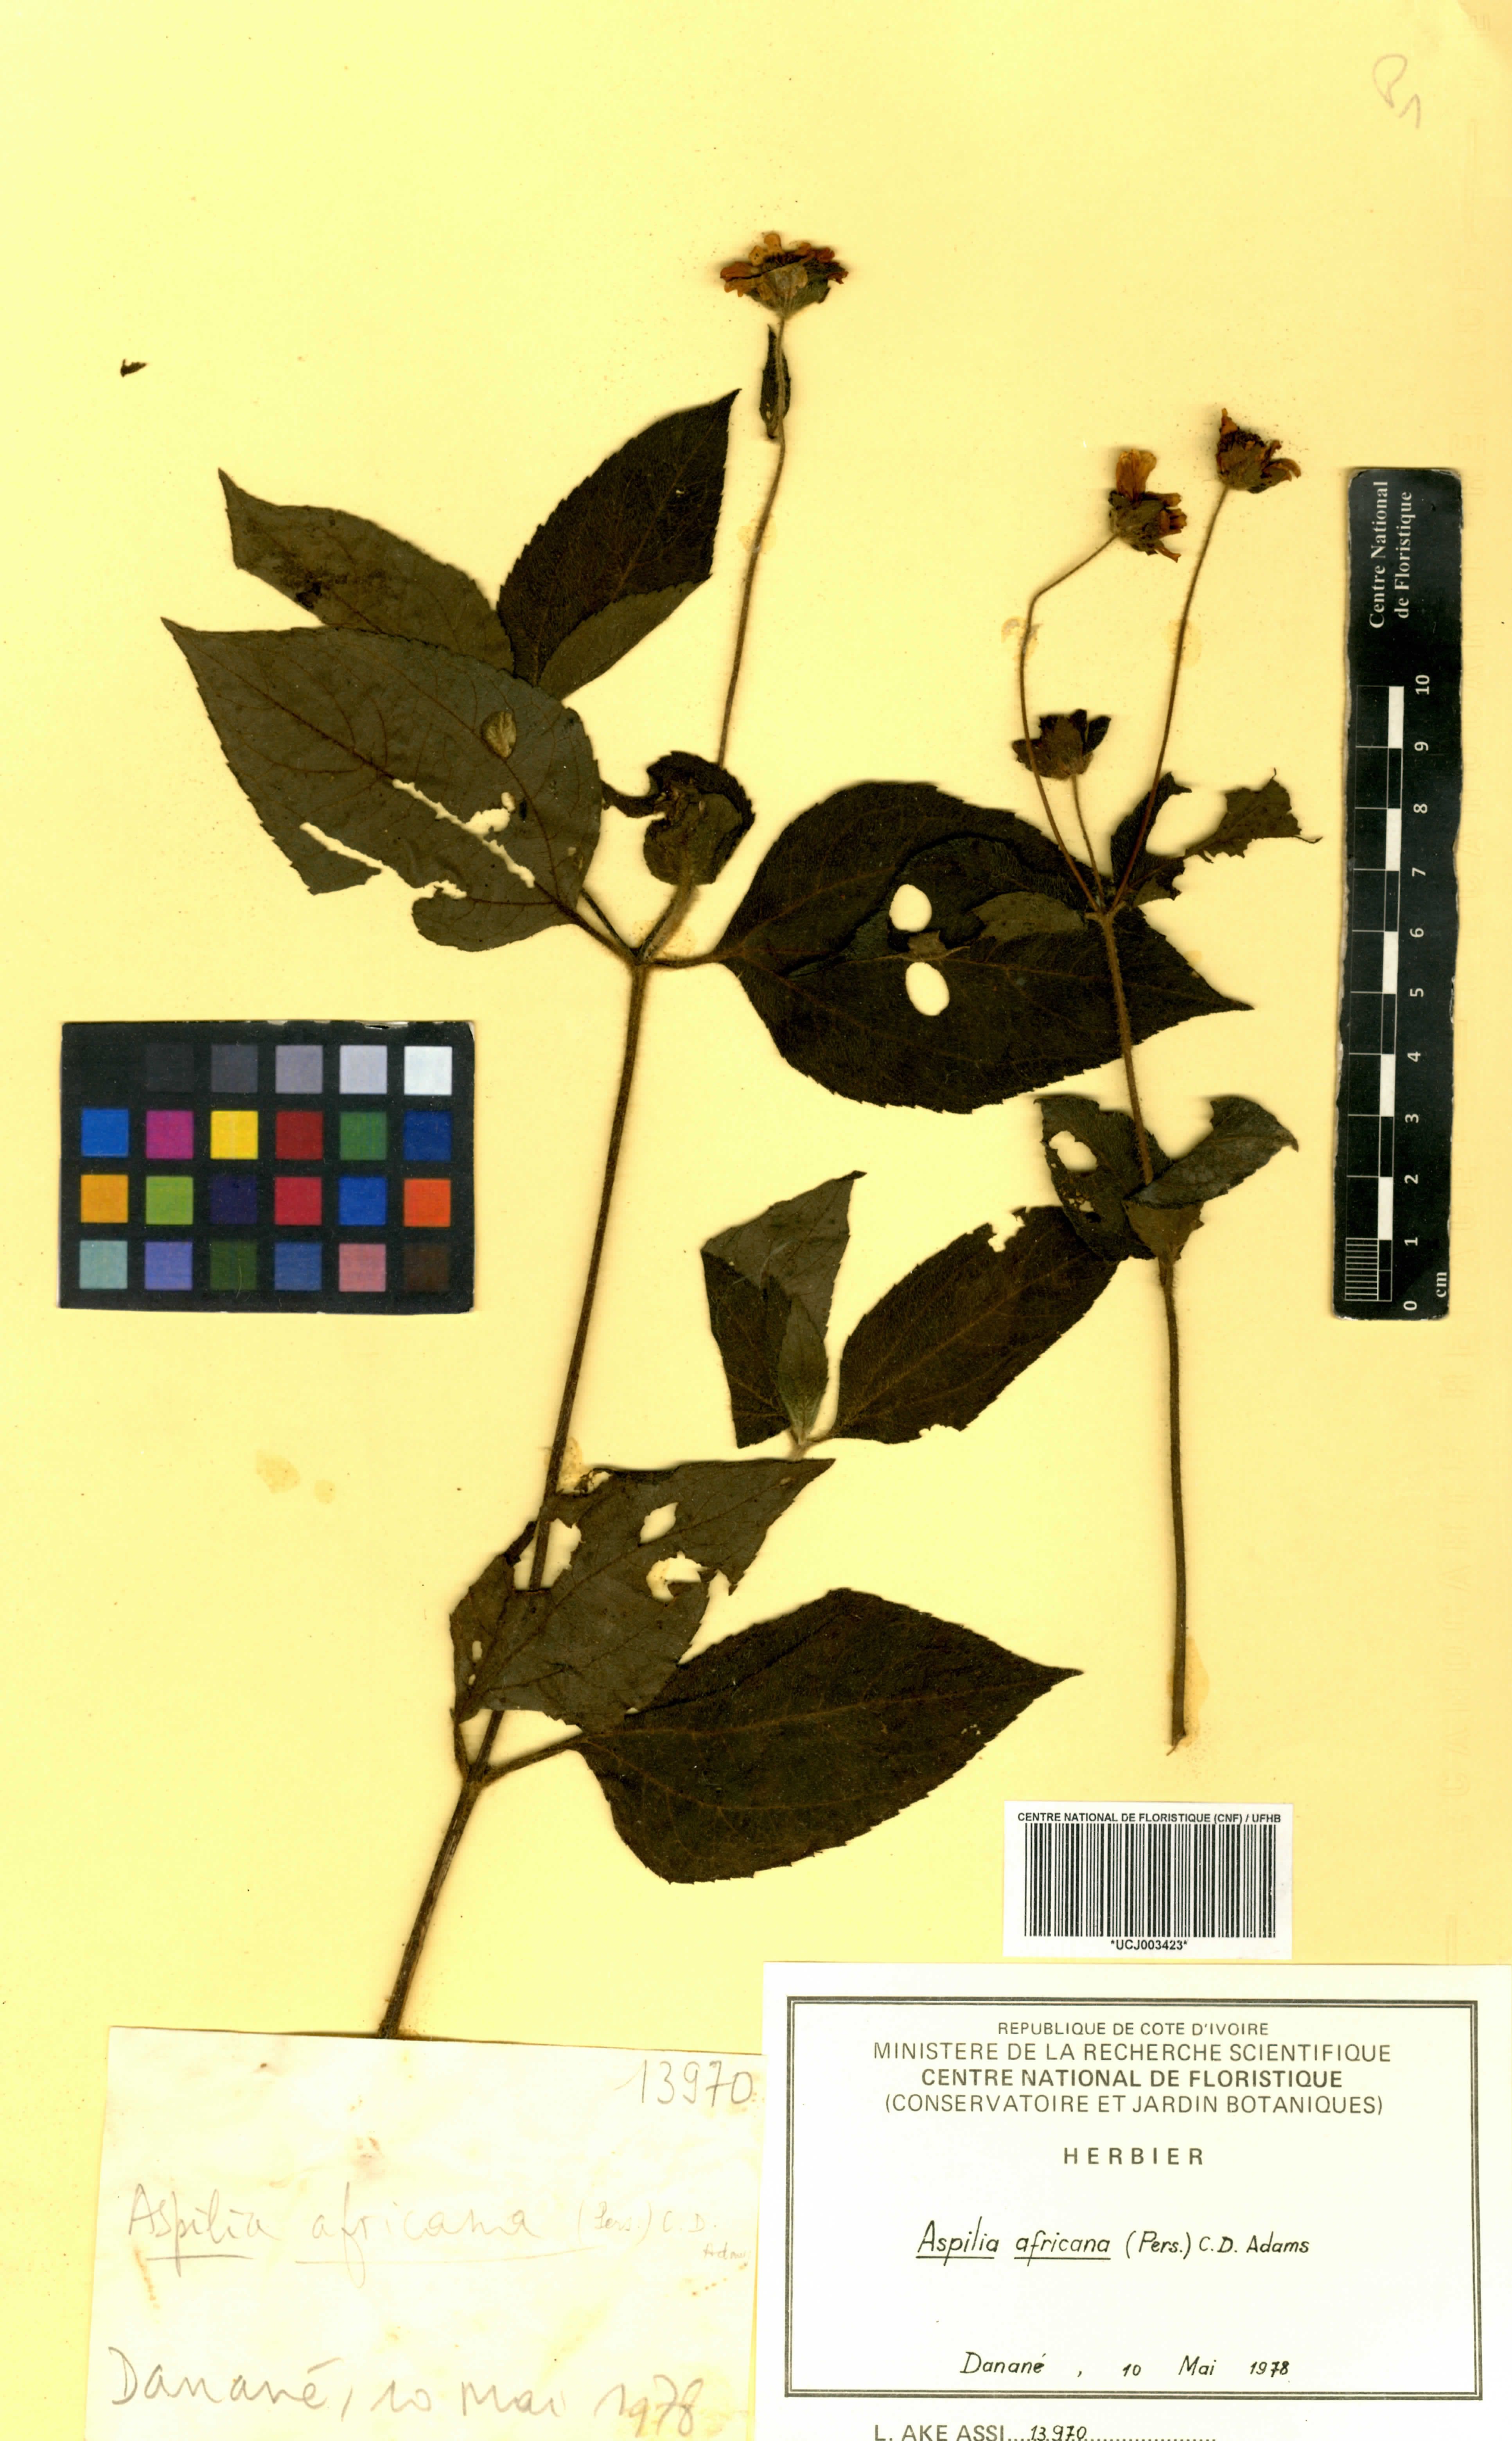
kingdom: Plantae
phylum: Tracheophyta
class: Magnoliopsida
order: Asterales
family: Asteraceae
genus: Aspilia
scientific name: Aspilia africana
